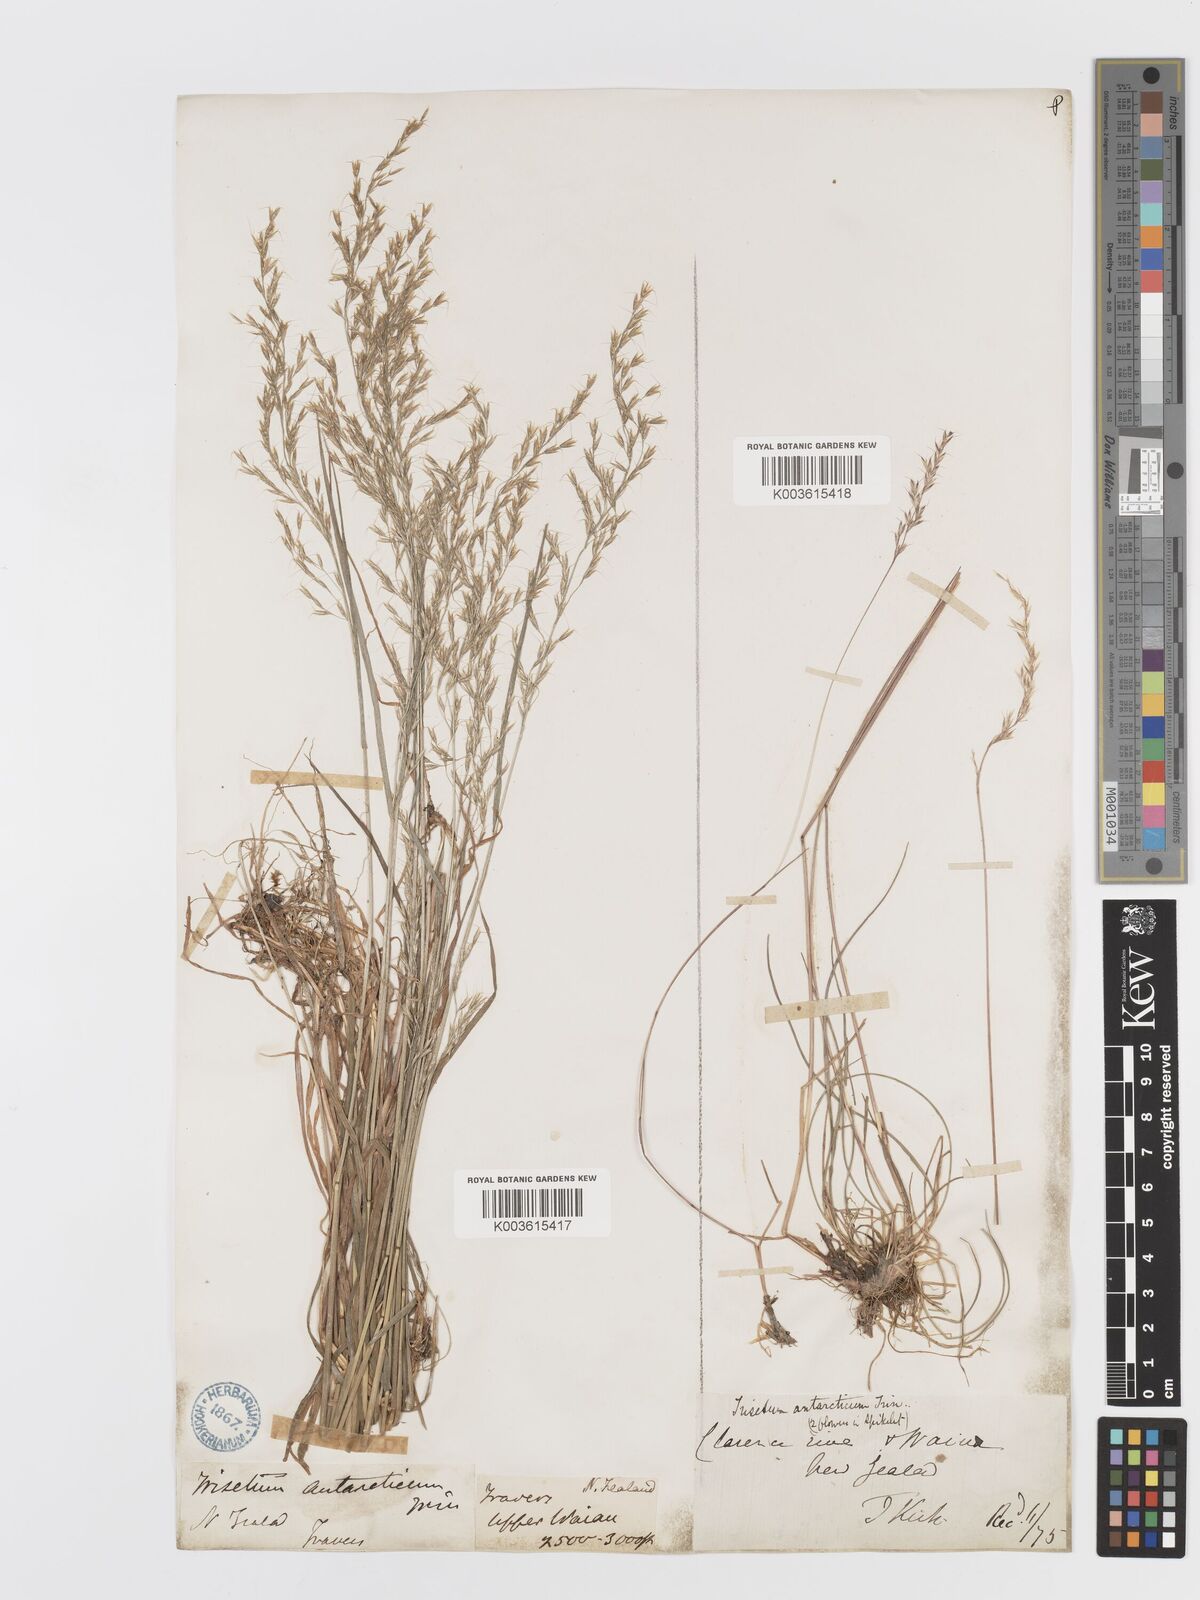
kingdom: Plantae
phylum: Tracheophyta
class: Liliopsida
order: Poales
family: Poaceae
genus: Koeleria
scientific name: Koeleria antarctica
